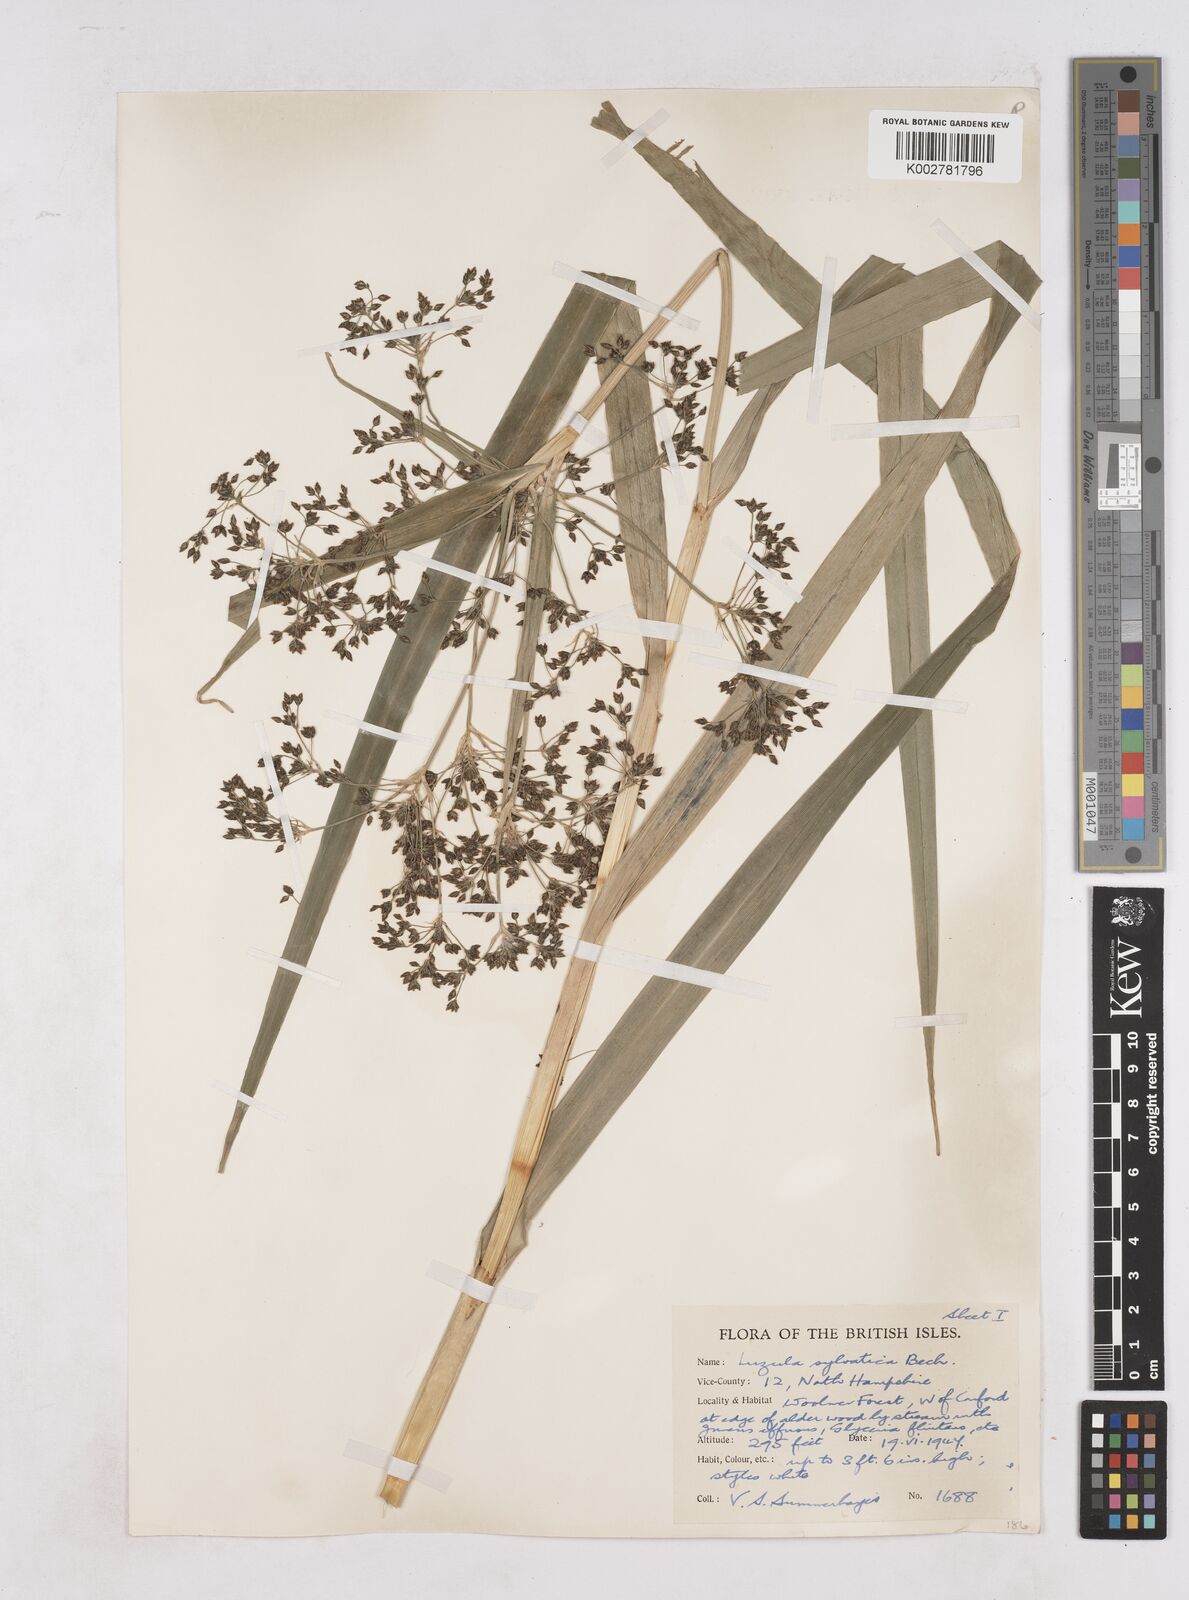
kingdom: Plantae
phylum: Tracheophyta
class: Liliopsida
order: Poales
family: Juncaceae
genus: Luzula
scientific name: Luzula sylvatica
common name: Great wood-rush
